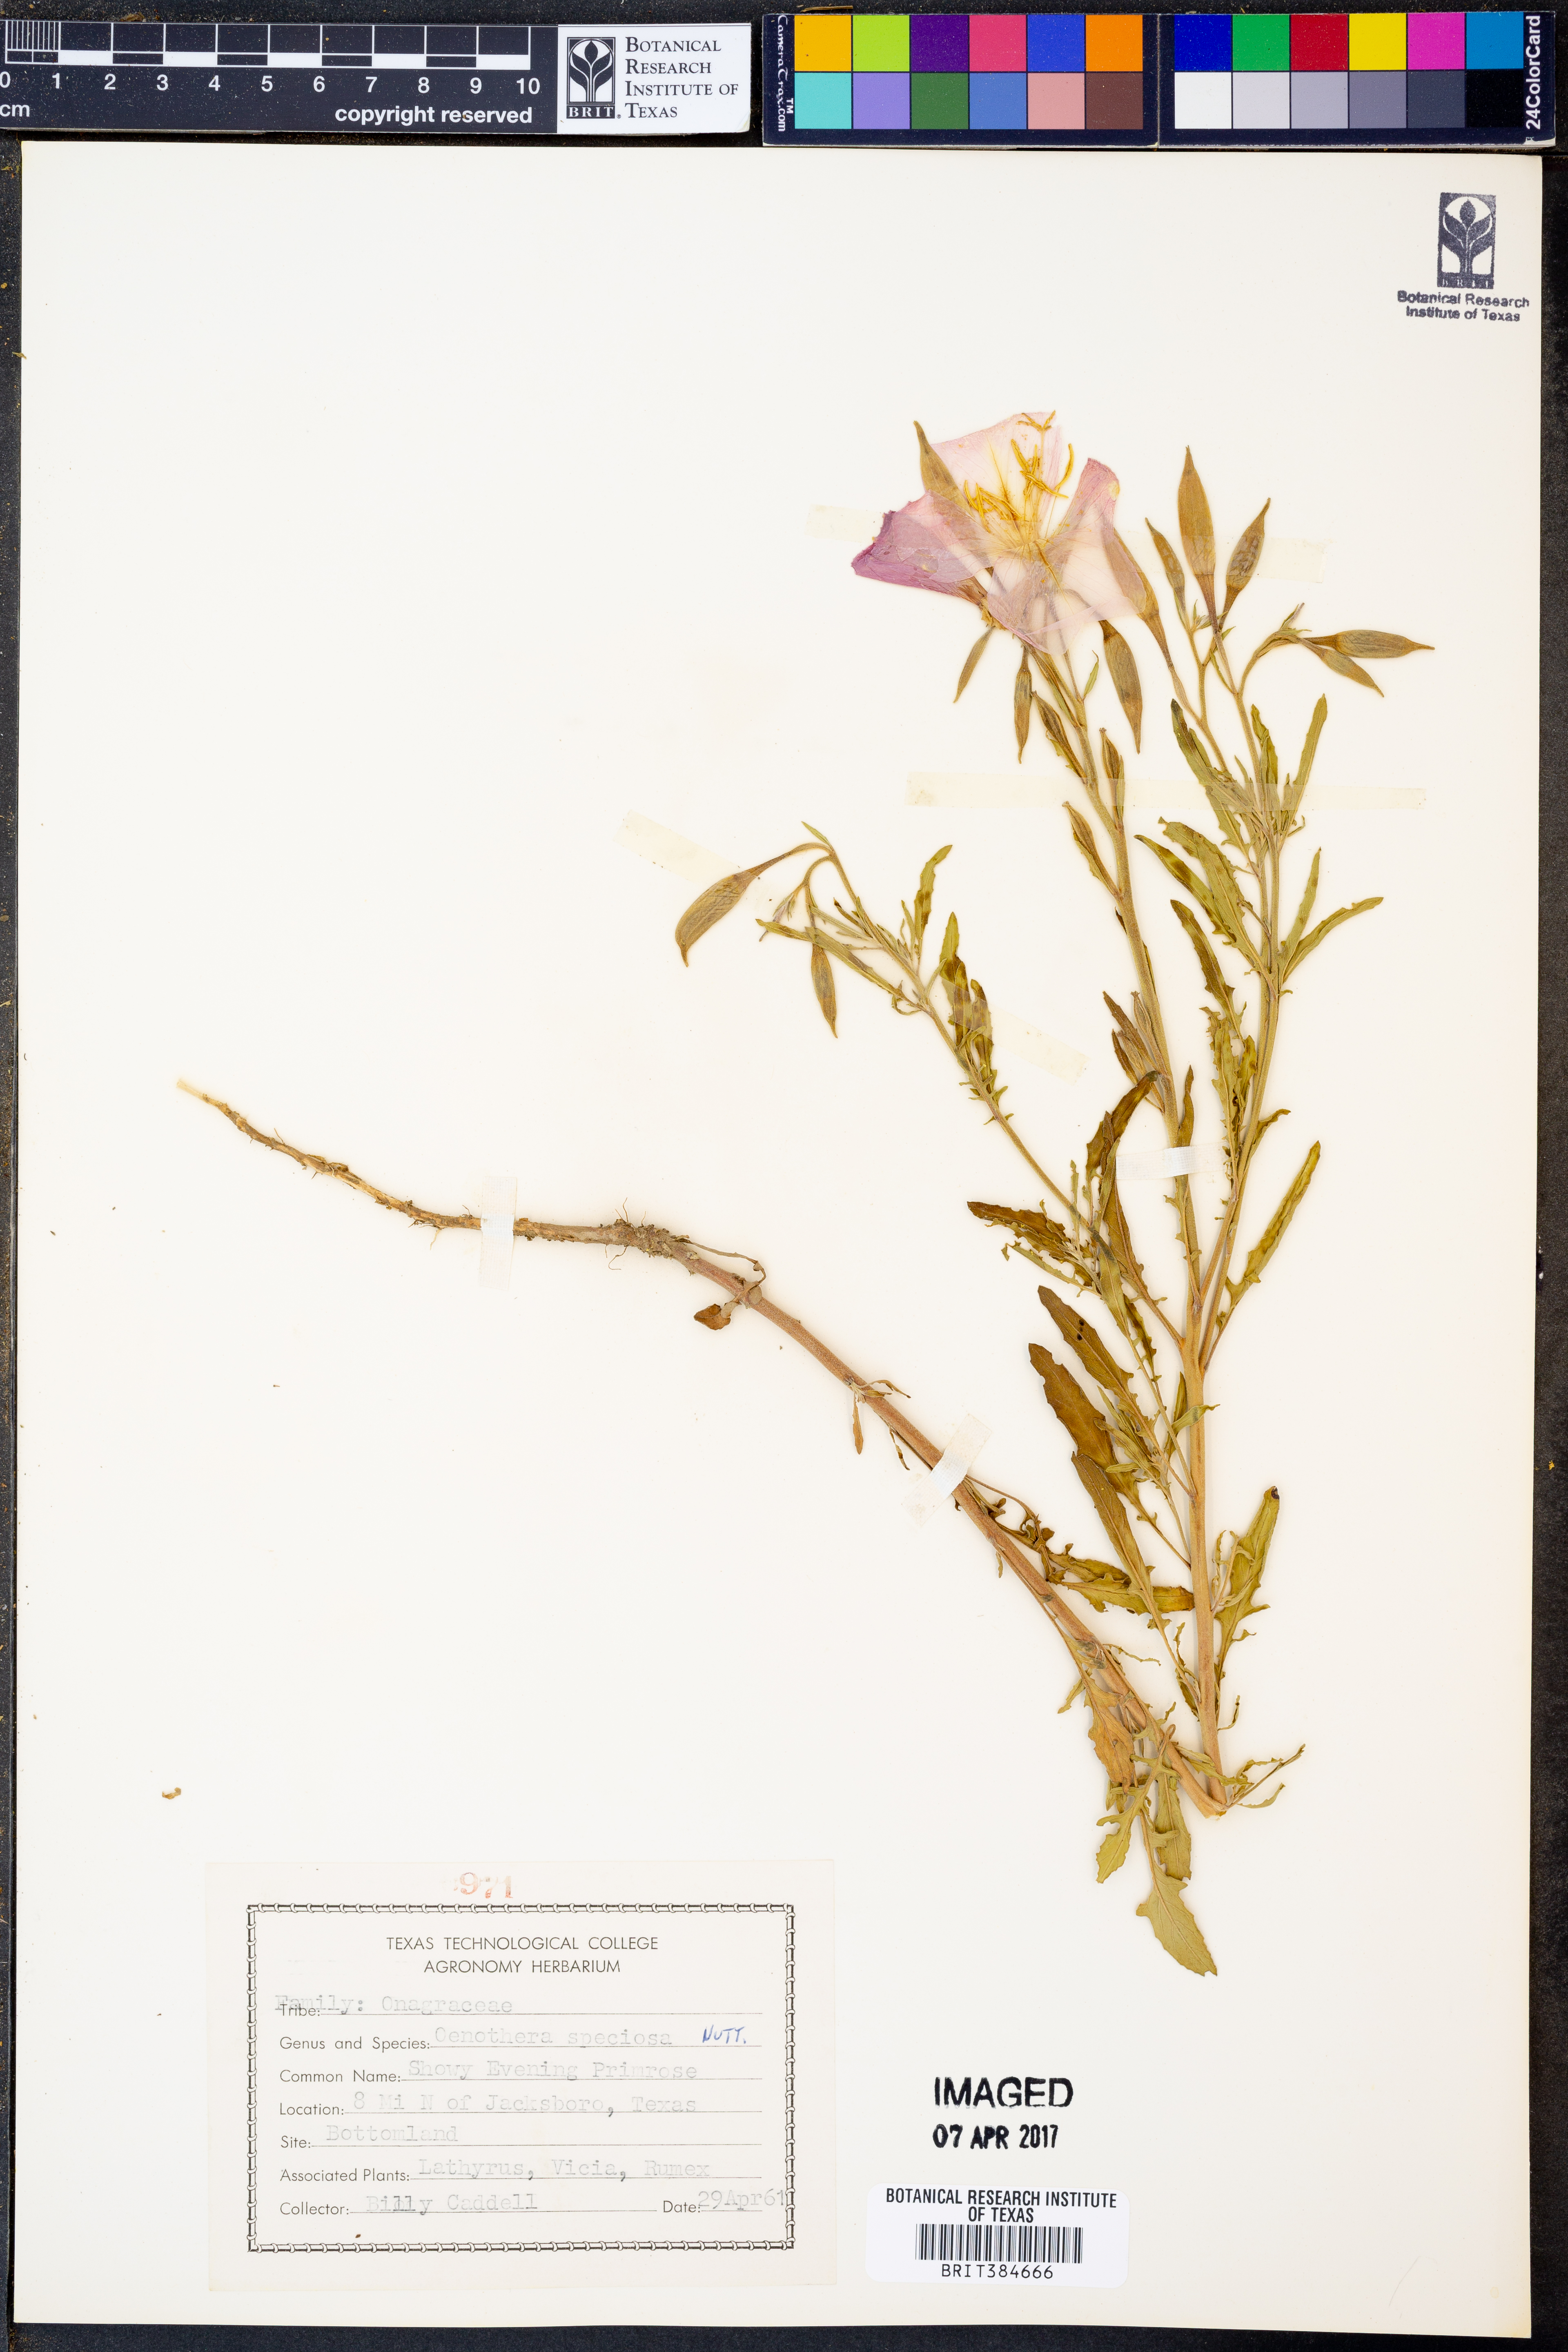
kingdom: Plantae
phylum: Tracheophyta
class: Magnoliopsida
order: Myrtales
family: Onagraceae
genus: Oenothera
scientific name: Oenothera speciosa
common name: White evening-primrose
